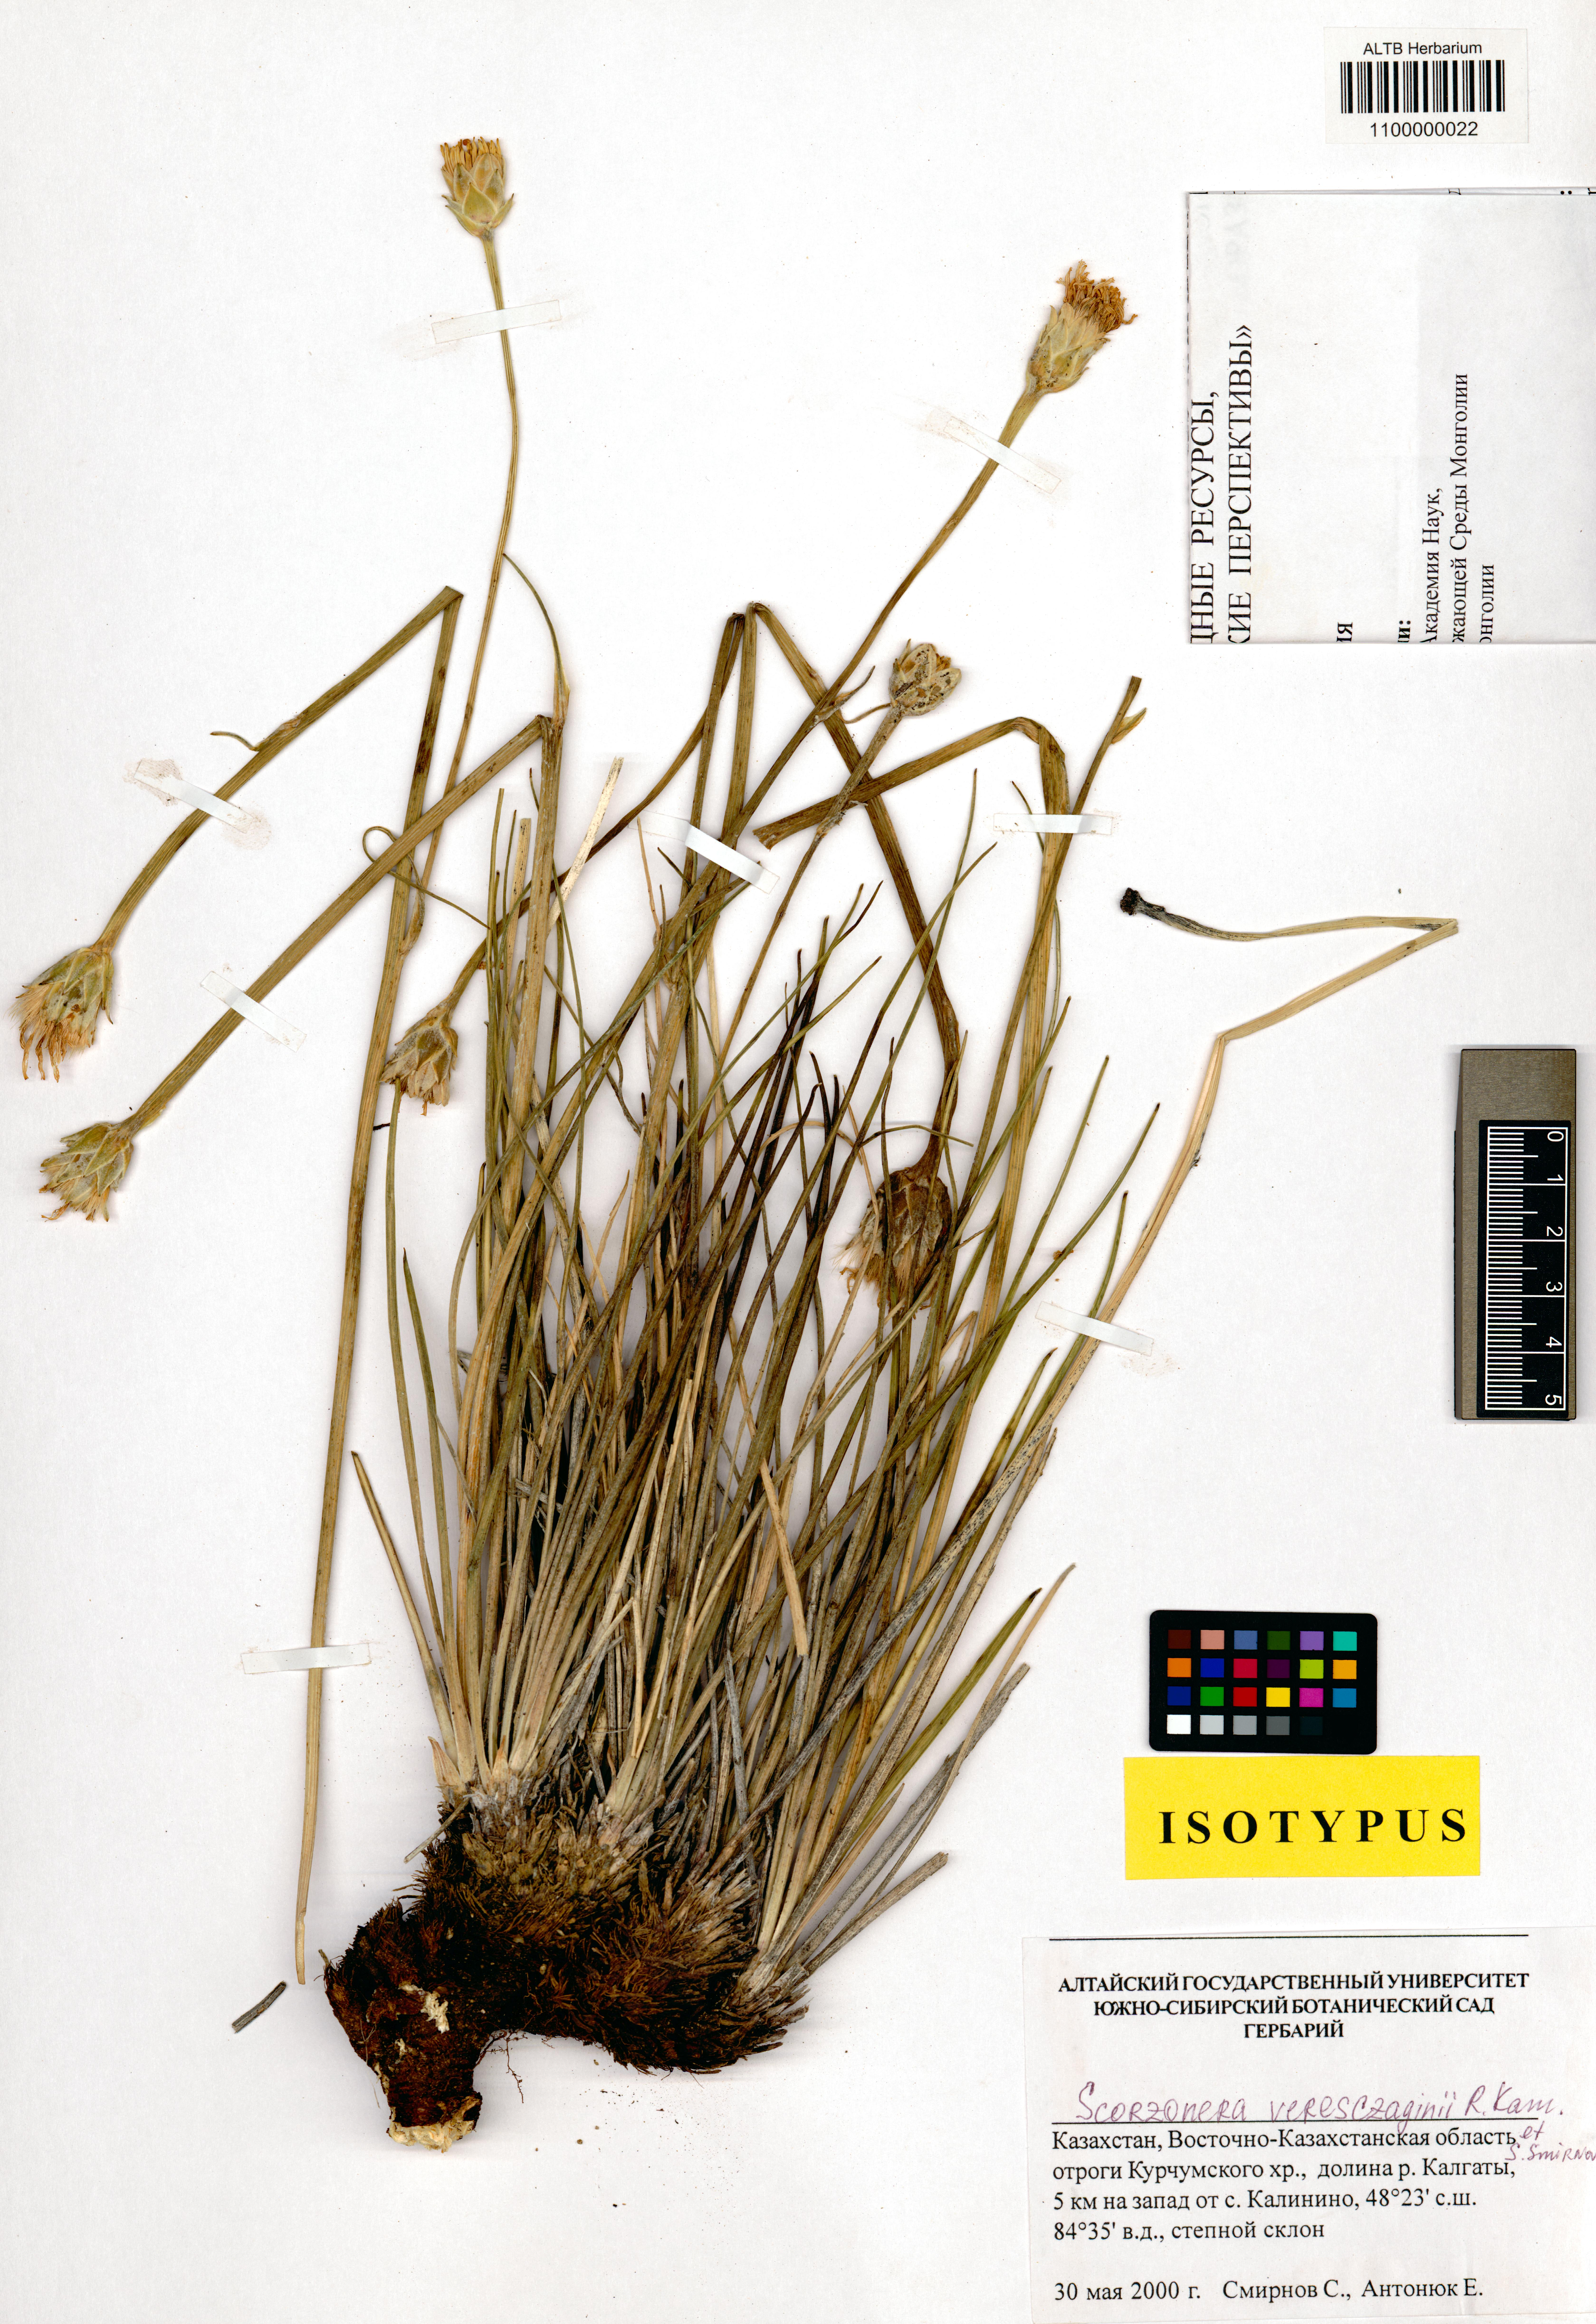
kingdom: Plantae
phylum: Tracheophyta
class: Magnoliopsida
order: Asterales
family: Asteraceae
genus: Takhtajaniantha
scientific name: Takhtajaniantha veresczaginii
